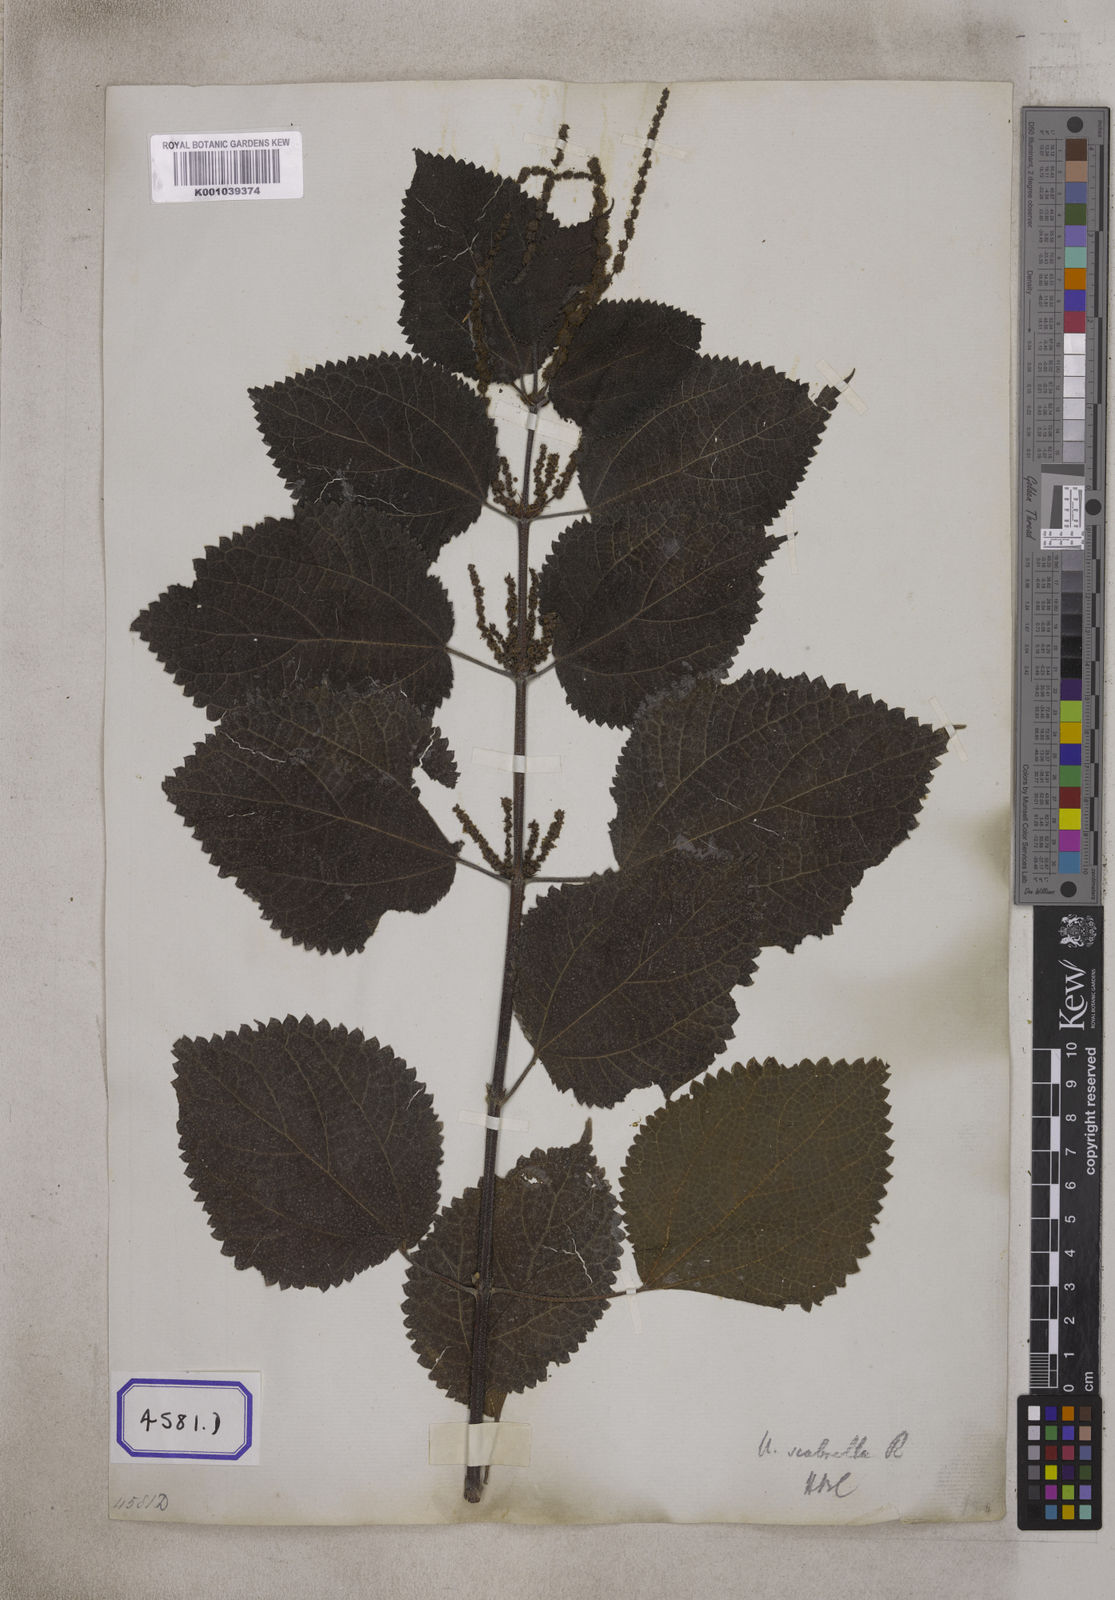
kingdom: Plantae
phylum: Tracheophyta
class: Magnoliopsida
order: Rosales
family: Urticaceae
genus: Boehmeria
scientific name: Boehmeria virgata
